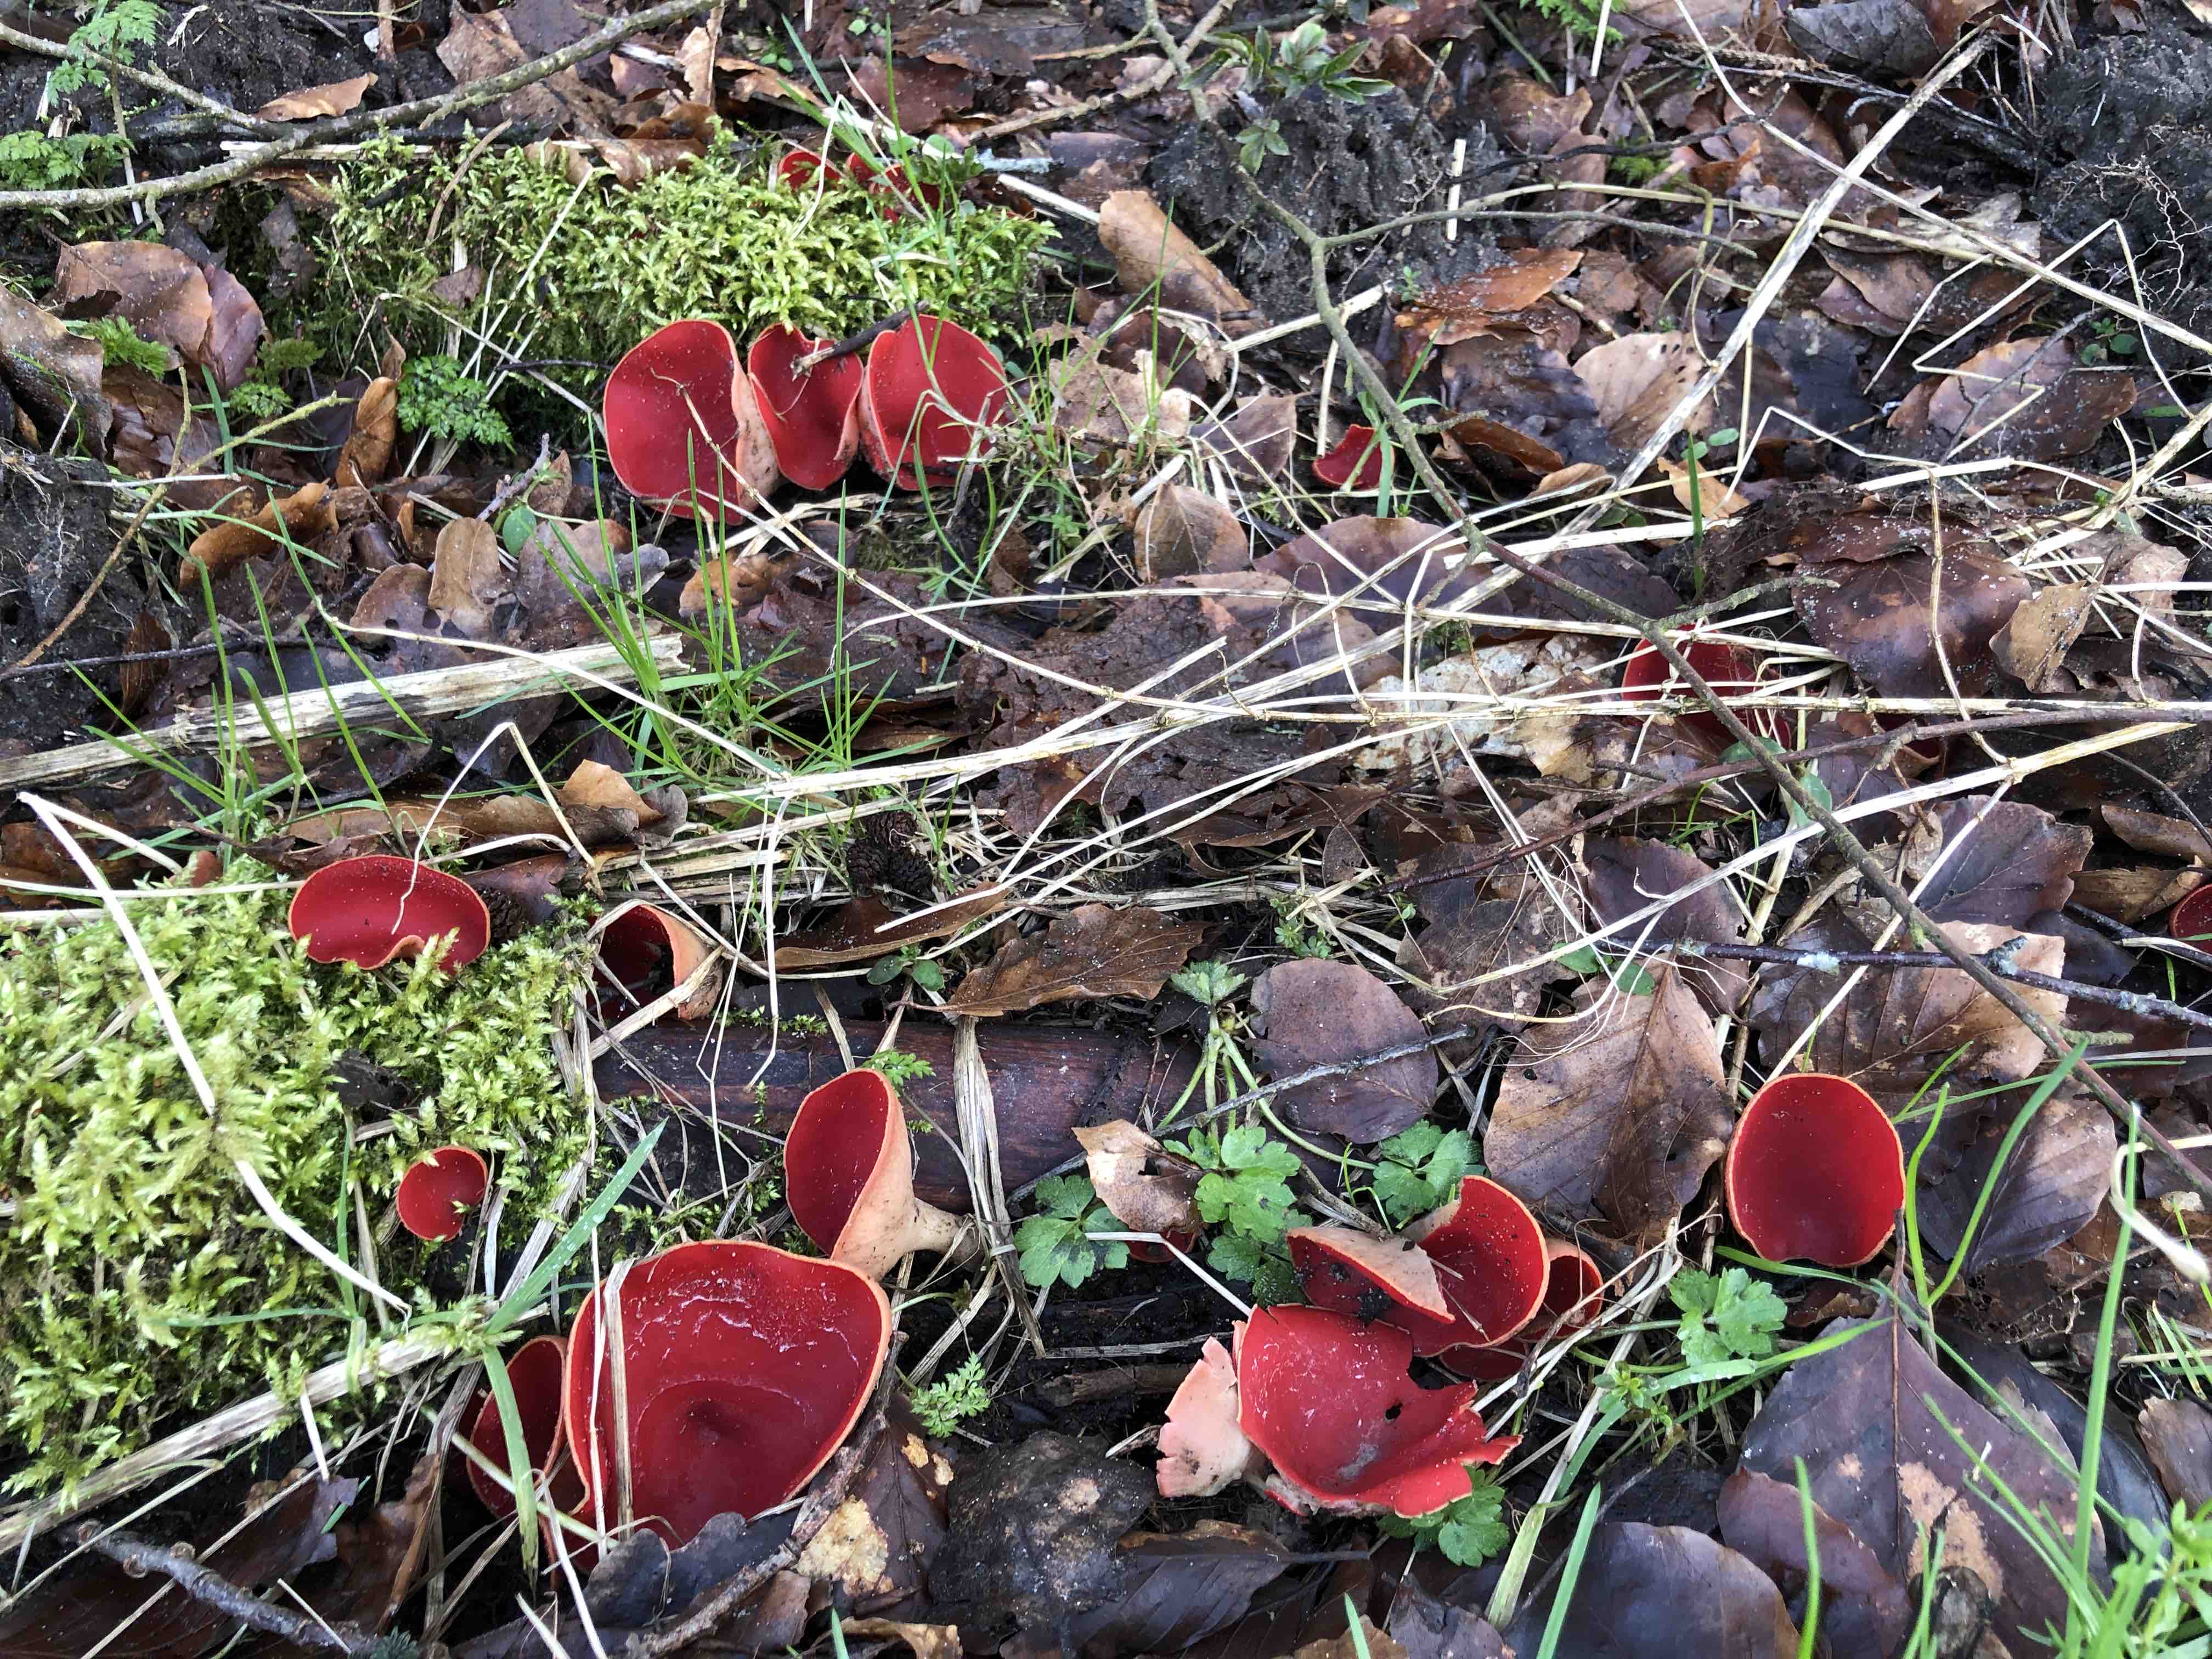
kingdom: Fungi
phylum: Ascomycota
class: Pezizomycetes
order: Pezizales
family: Sarcoscyphaceae
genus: Sarcoscypha
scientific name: Sarcoscypha austriaca
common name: krølhåret pragtbæger
